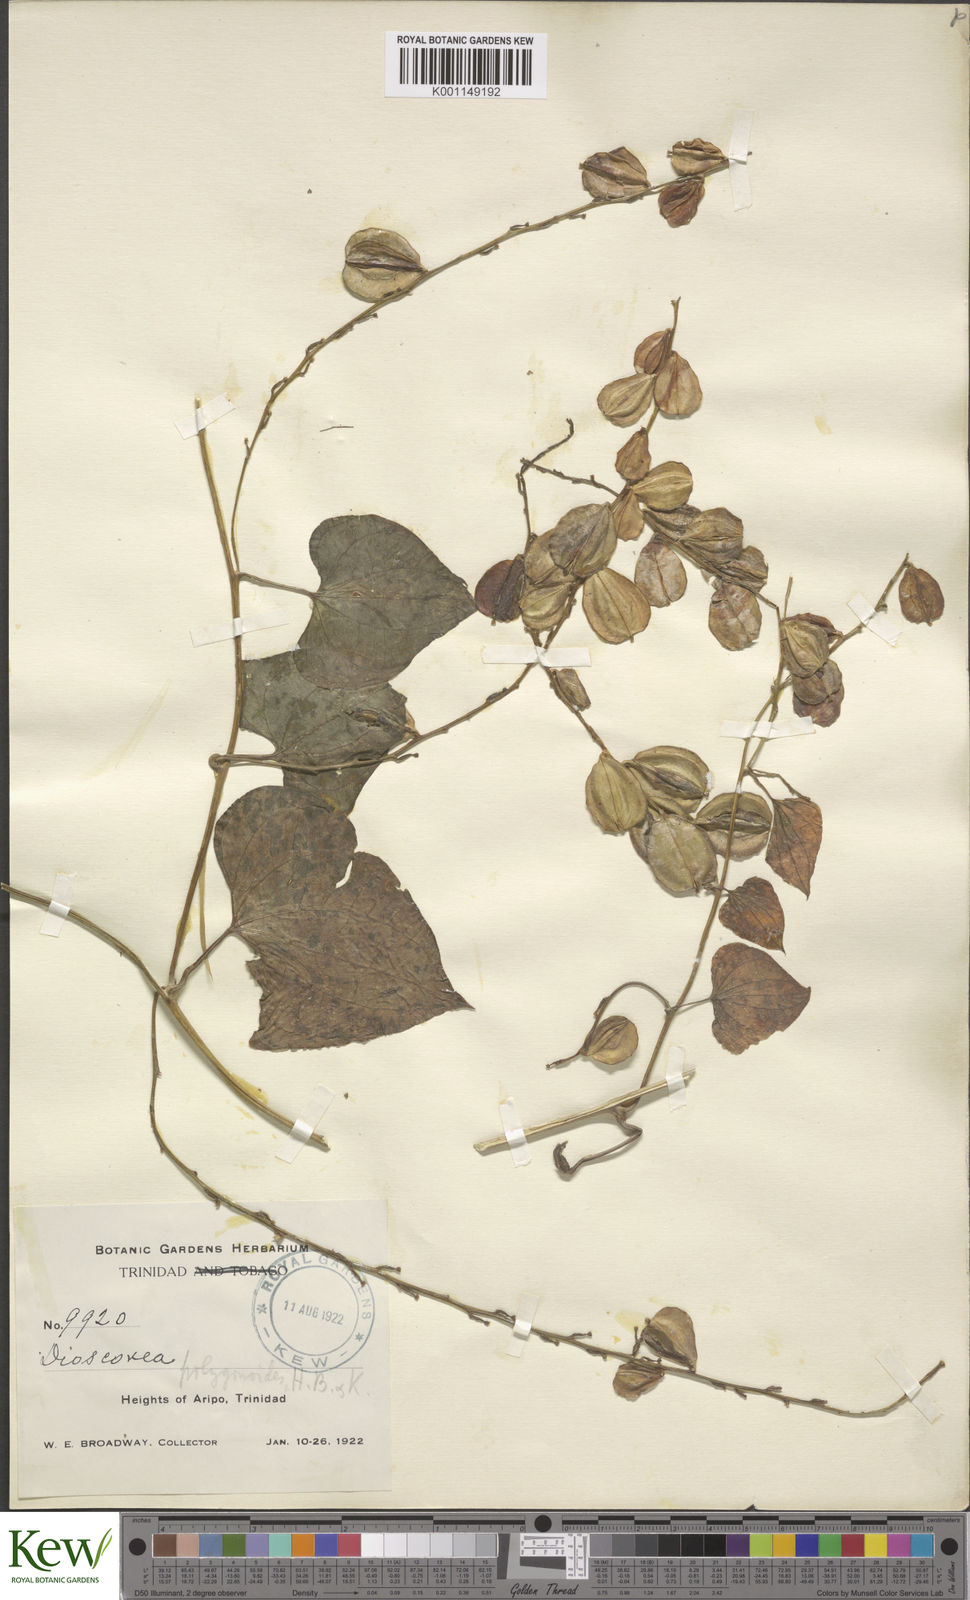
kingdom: Plantae
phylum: Tracheophyta
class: Liliopsida
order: Dioscoreales
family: Dioscoreaceae
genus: Dioscorea
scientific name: Dioscorea polygonoides
